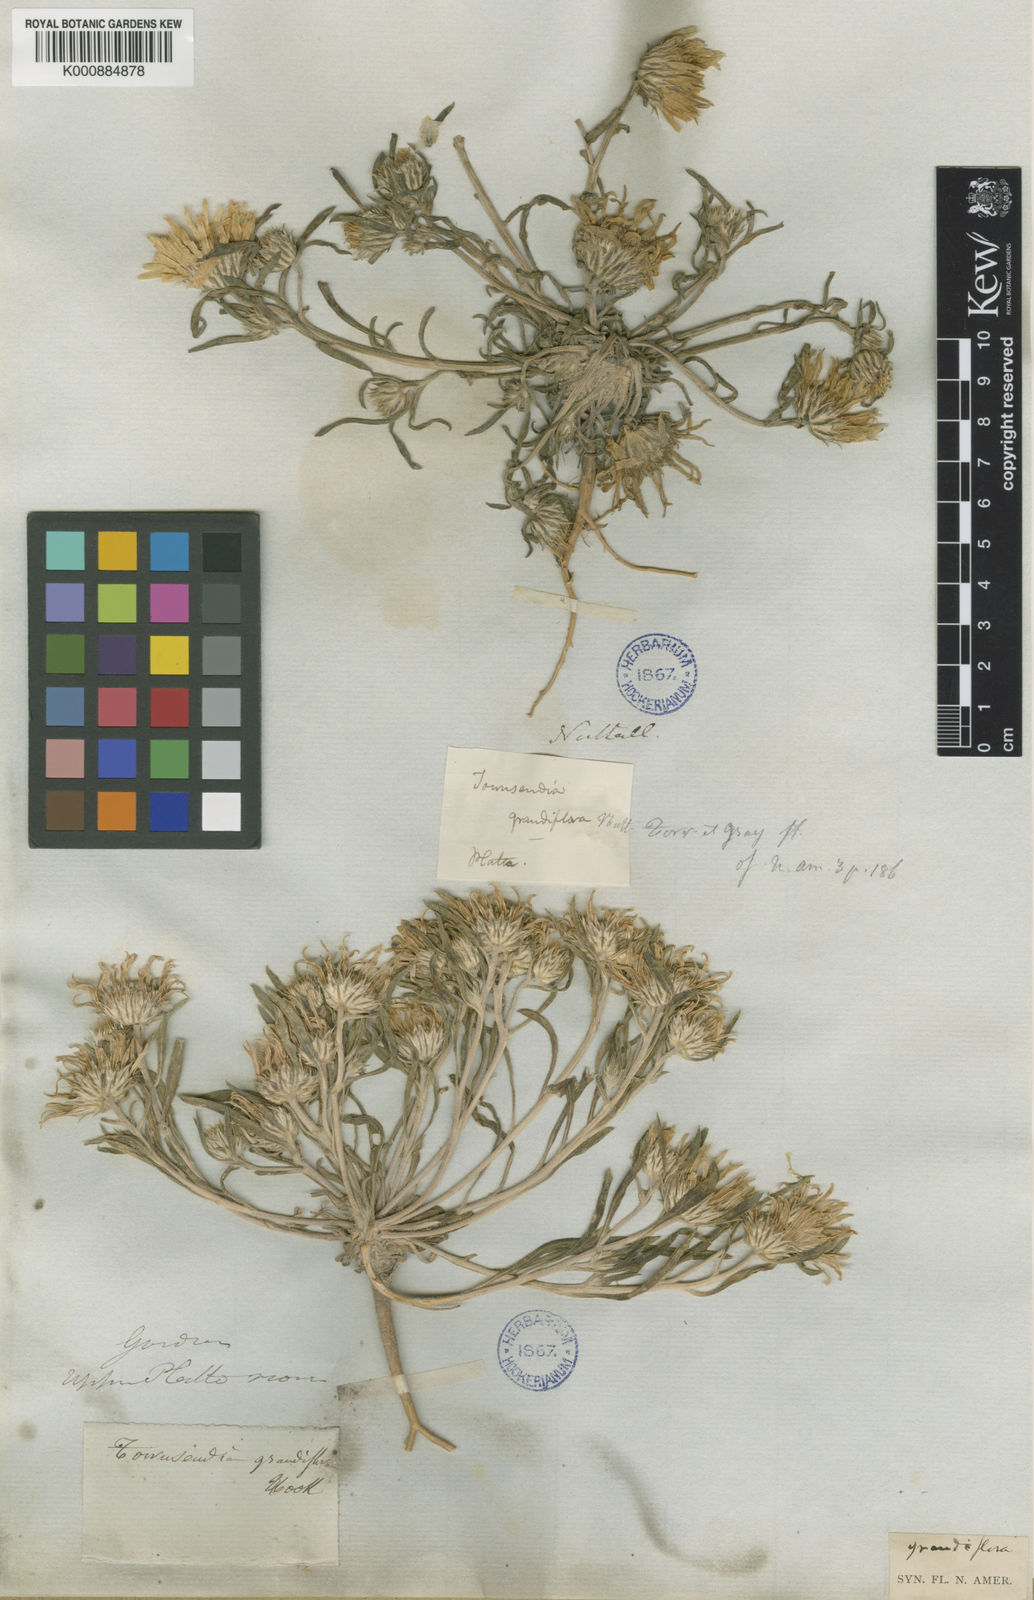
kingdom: Plantae
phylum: Tracheophyta
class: Magnoliopsida
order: Asterales
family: Asteraceae
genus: Townsendia
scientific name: Townsendia
